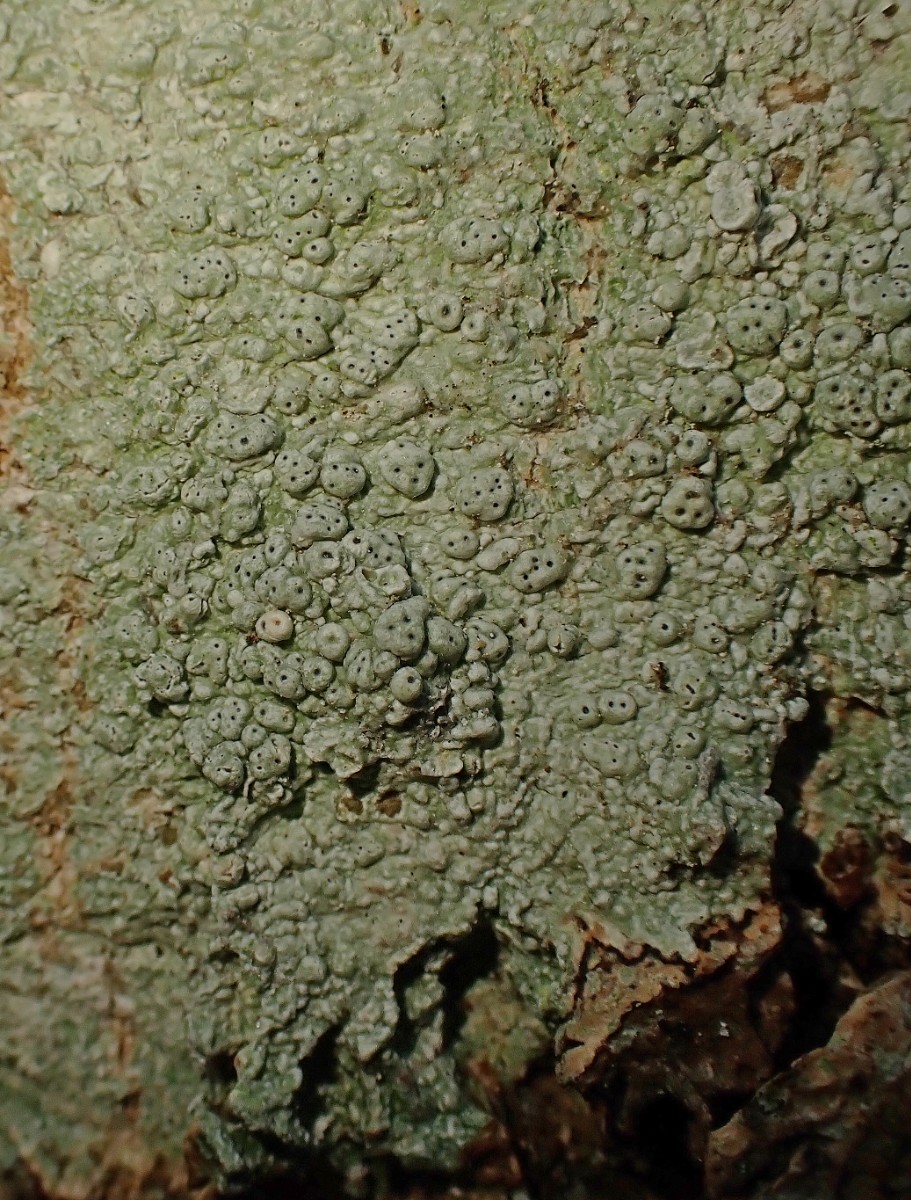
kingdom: Fungi
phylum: Ascomycota
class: Lecanoromycetes
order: Pertusariales
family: Pertusariaceae
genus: Pertusaria
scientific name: Pertusaria pertusa
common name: almindelig prikvortelav
